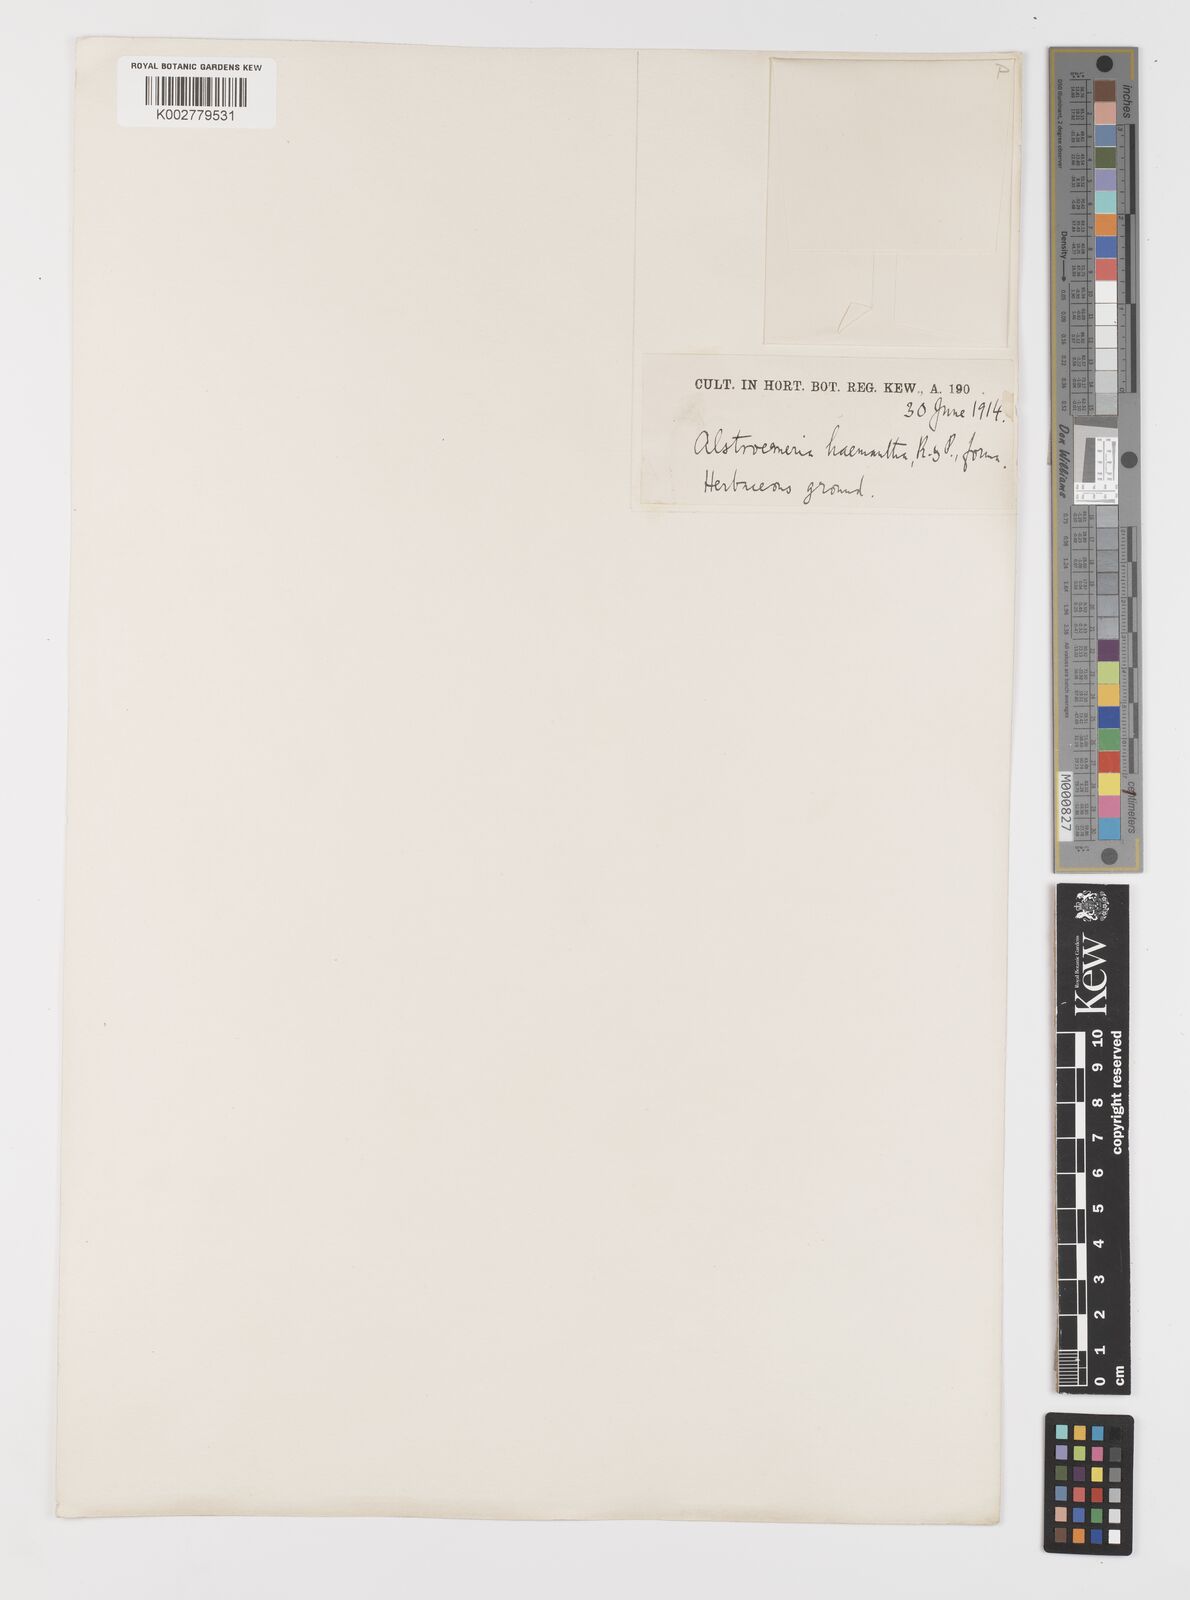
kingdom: Plantae
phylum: Tracheophyta
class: Liliopsida
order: Liliales
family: Alstroemeriaceae
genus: Alstroemeria
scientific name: Alstroemeria ligtu
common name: St. martin's-flower
